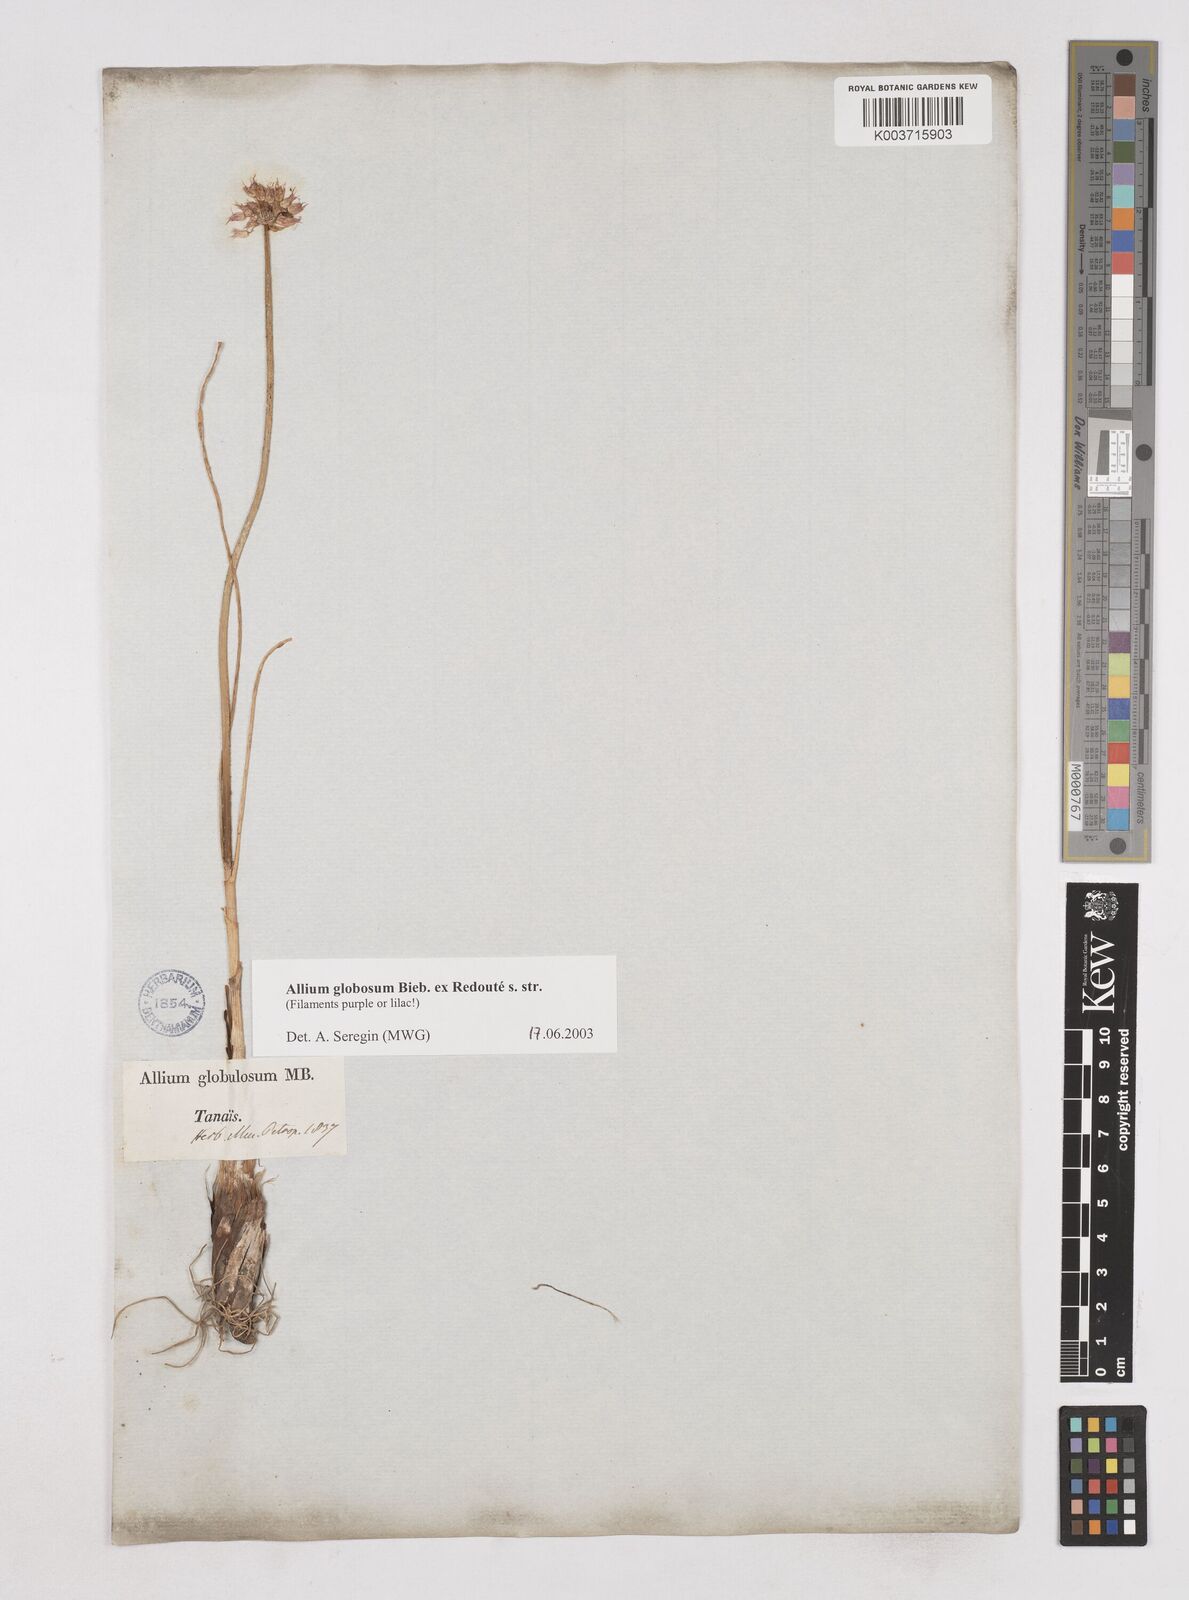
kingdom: Plantae
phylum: Tracheophyta
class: Liliopsida
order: Asparagales
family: Amaryllidaceae
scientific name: Amaryllidaceae
